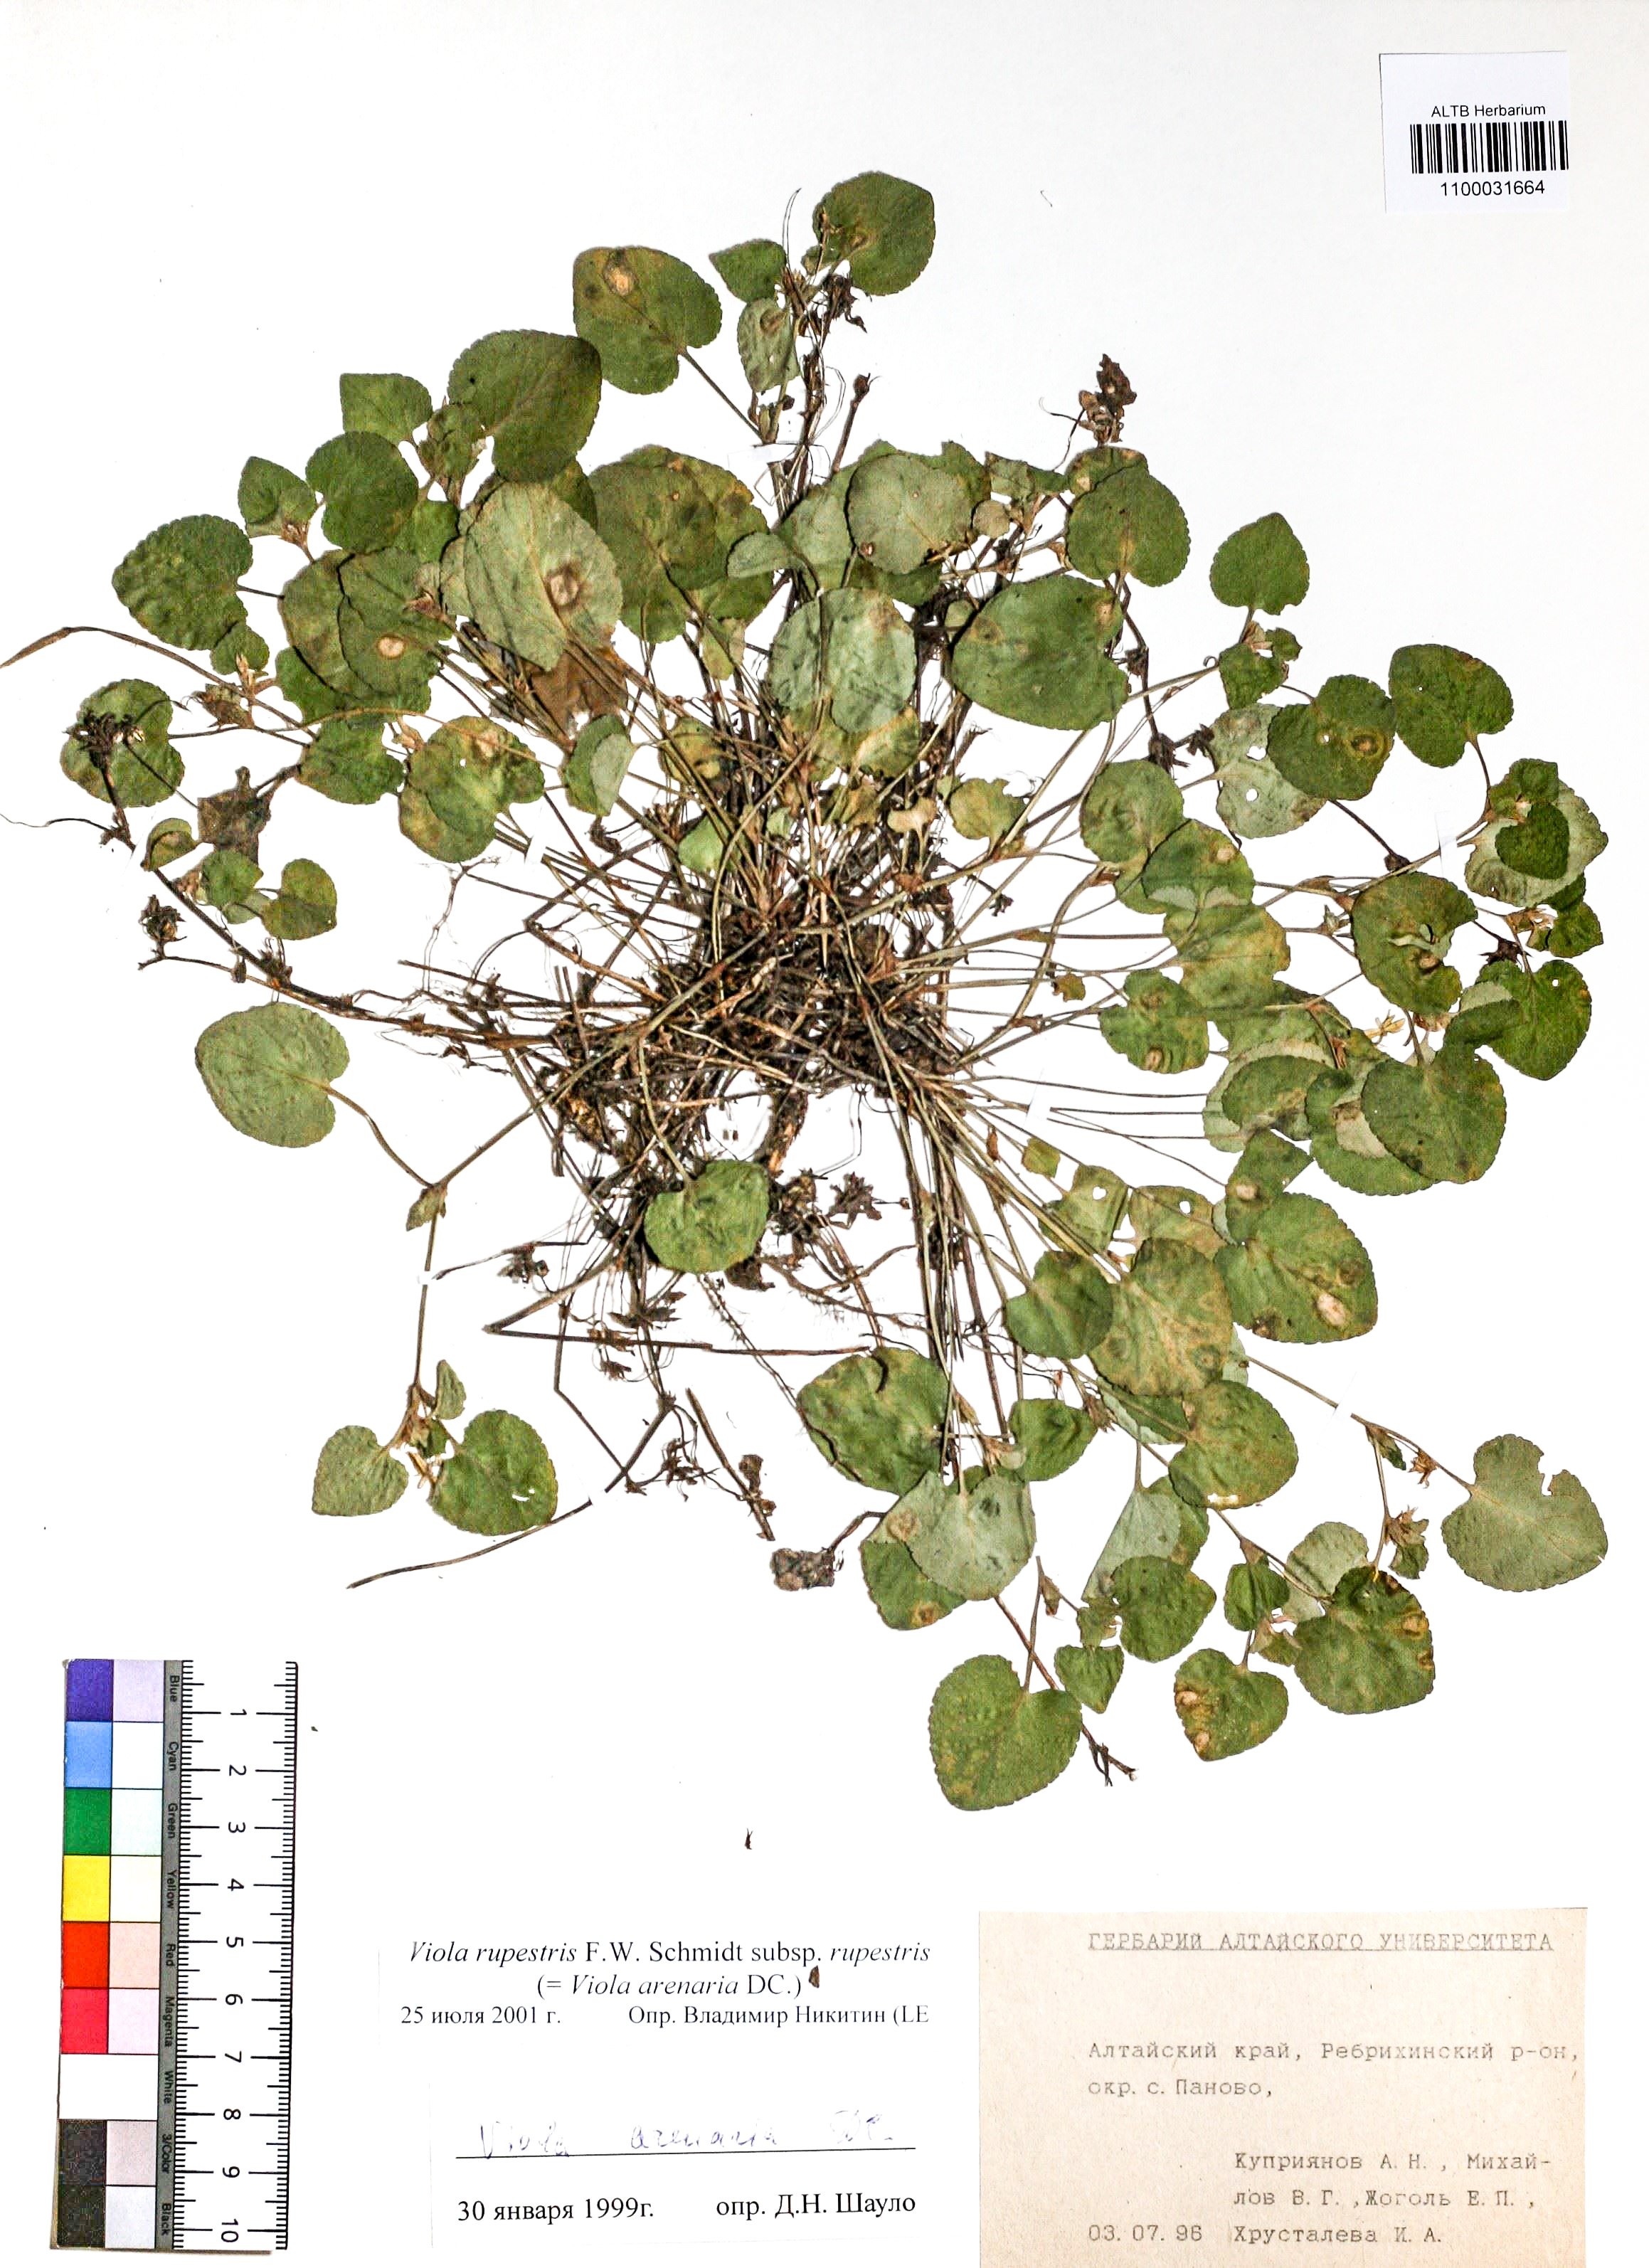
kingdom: Plantae
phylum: Tracheophyta
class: Magnoliopsida
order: Malpighiales
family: Violaceae
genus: Viola
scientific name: Viola rupestris
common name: Teesdale violet
